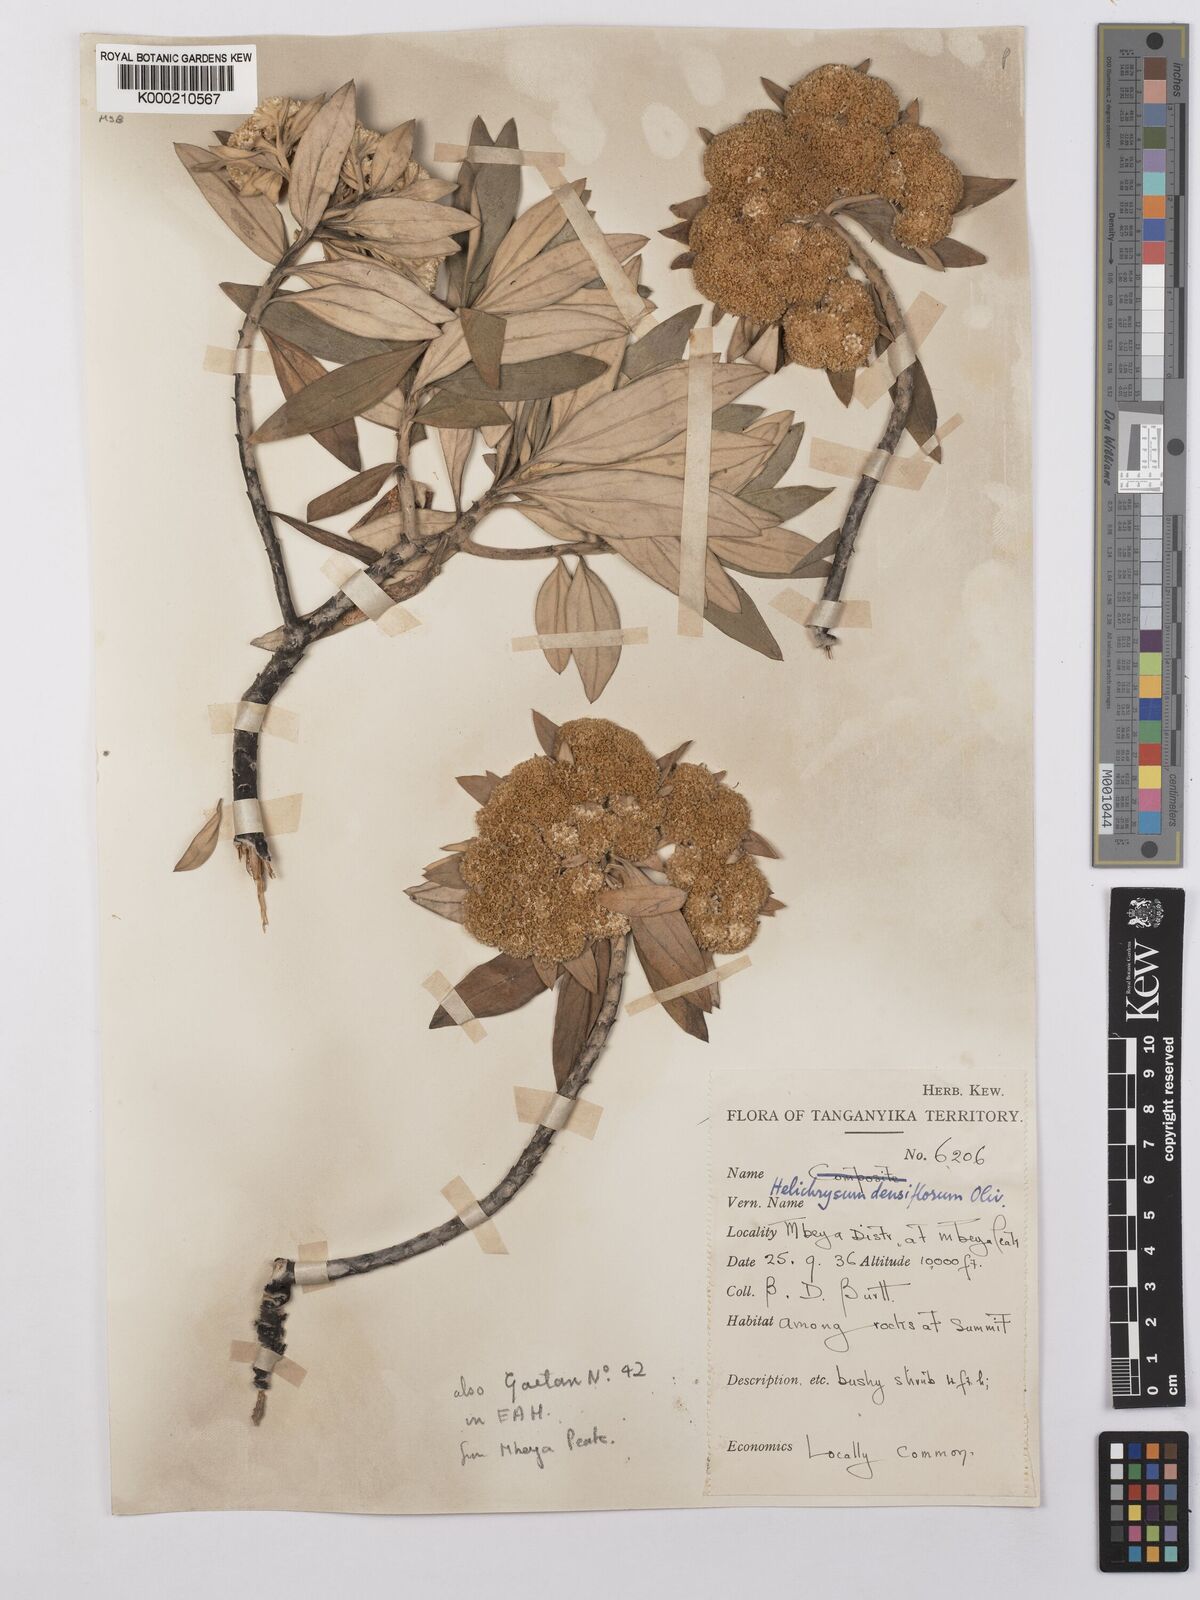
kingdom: Plantae
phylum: Tracheophyta
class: Magnoliopsida
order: Asterales
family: Asteraceae
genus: Helichrysum
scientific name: Helichrysum densiflorum
